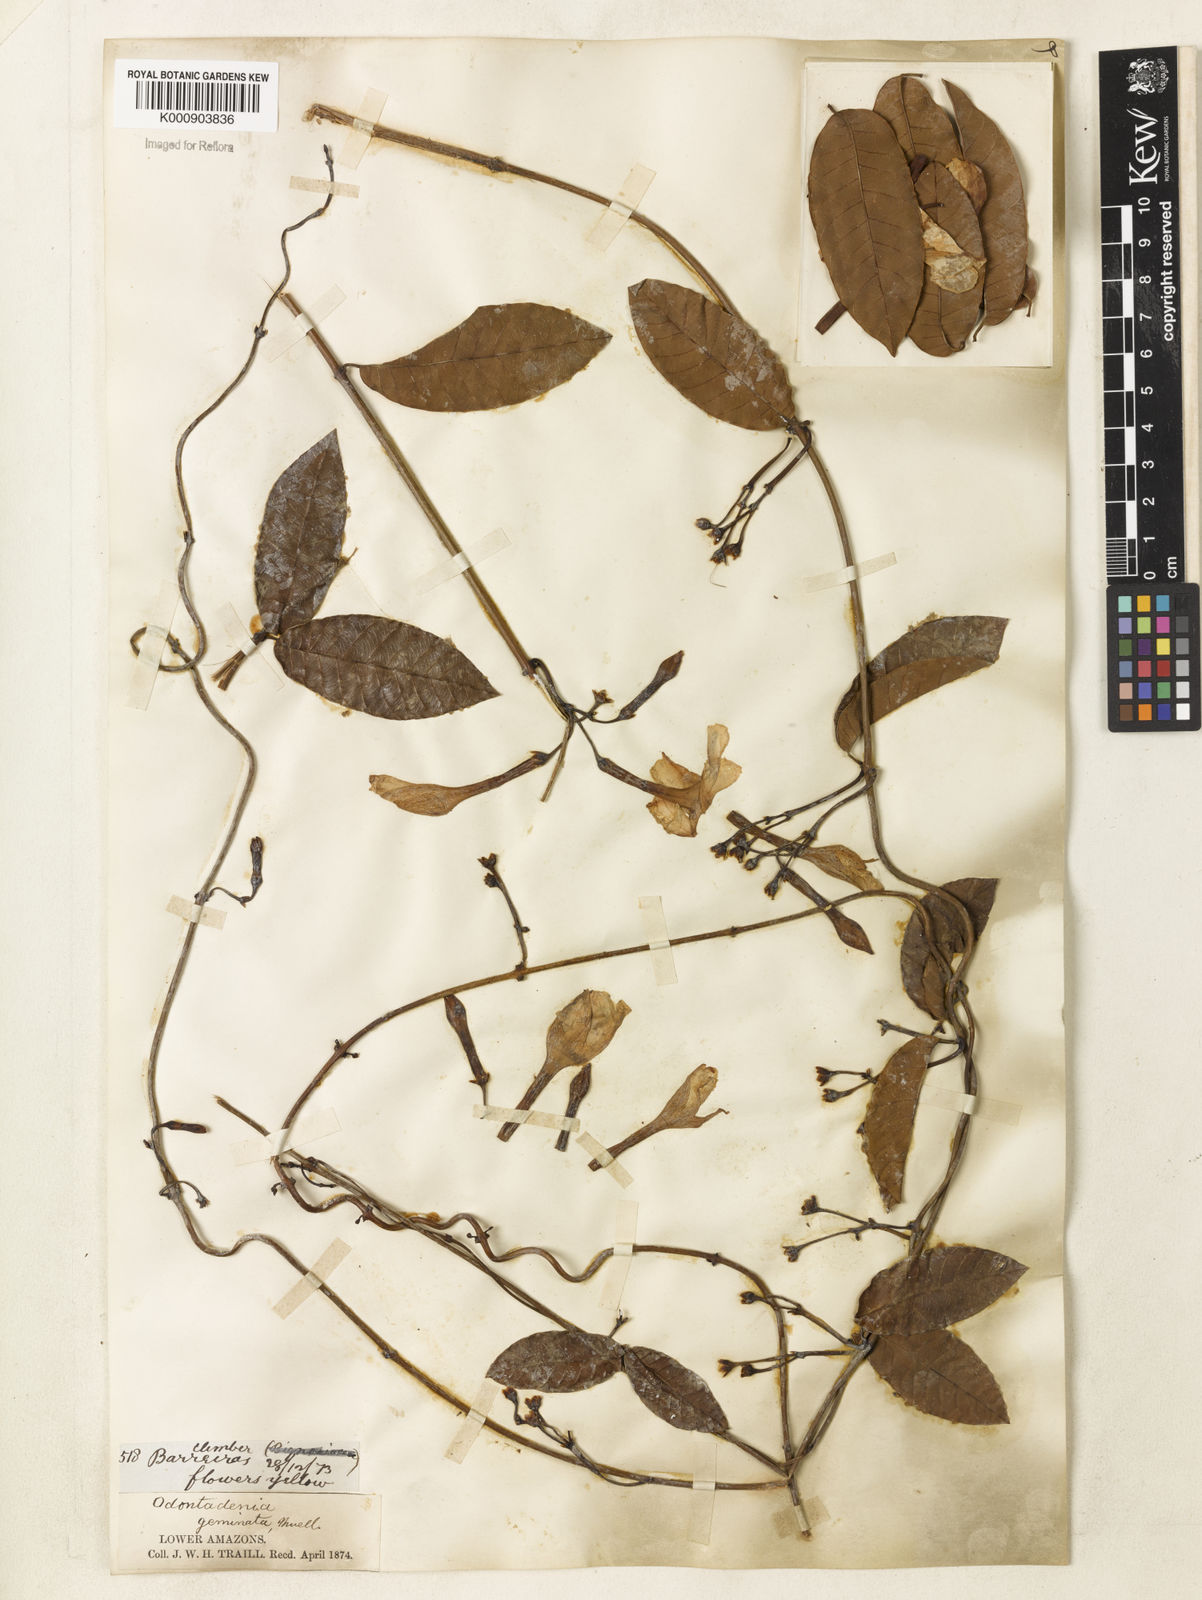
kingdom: Plantae
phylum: Tracheophyta
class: Magnoliopsida
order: Gentianales
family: Apocynaceae
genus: Odontadenia
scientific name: Odontadenia
